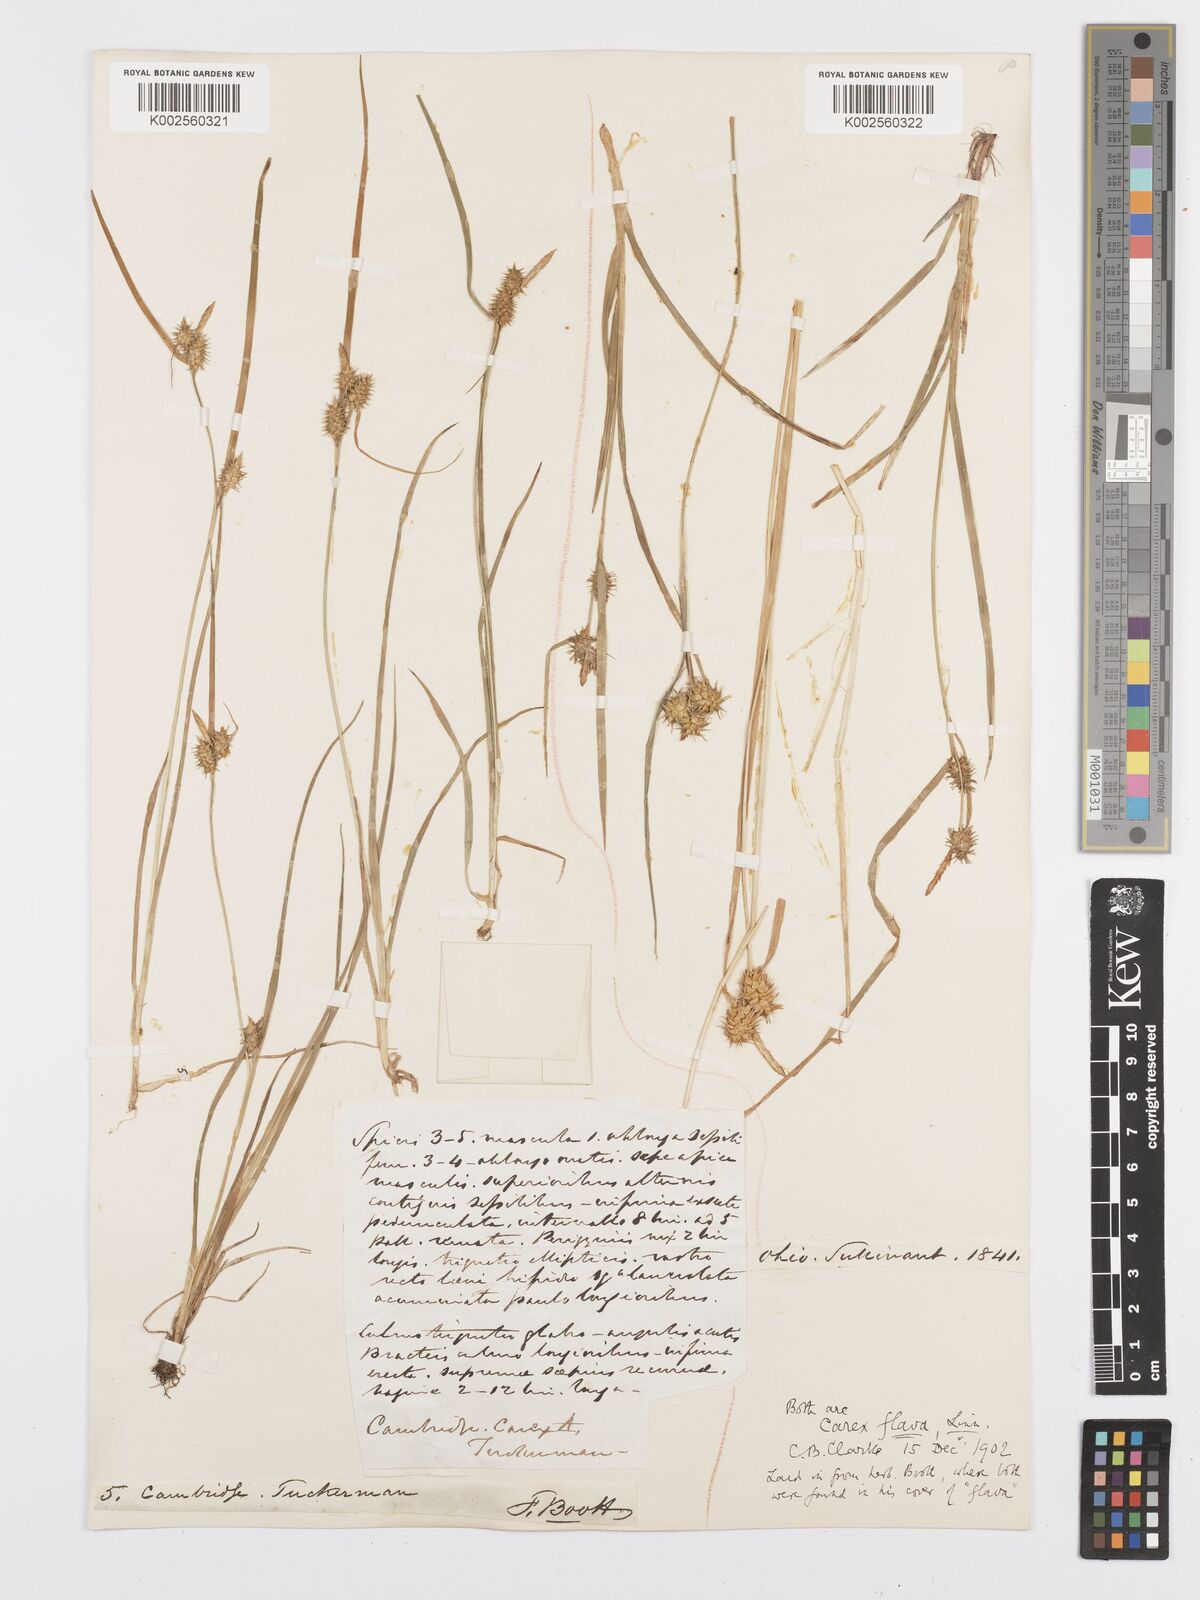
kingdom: Plantae
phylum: Tracheophyta
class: Liliopsida
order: Poales
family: Cyperaceae
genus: Carex
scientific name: Carex flava
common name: Large yellow-sedge
